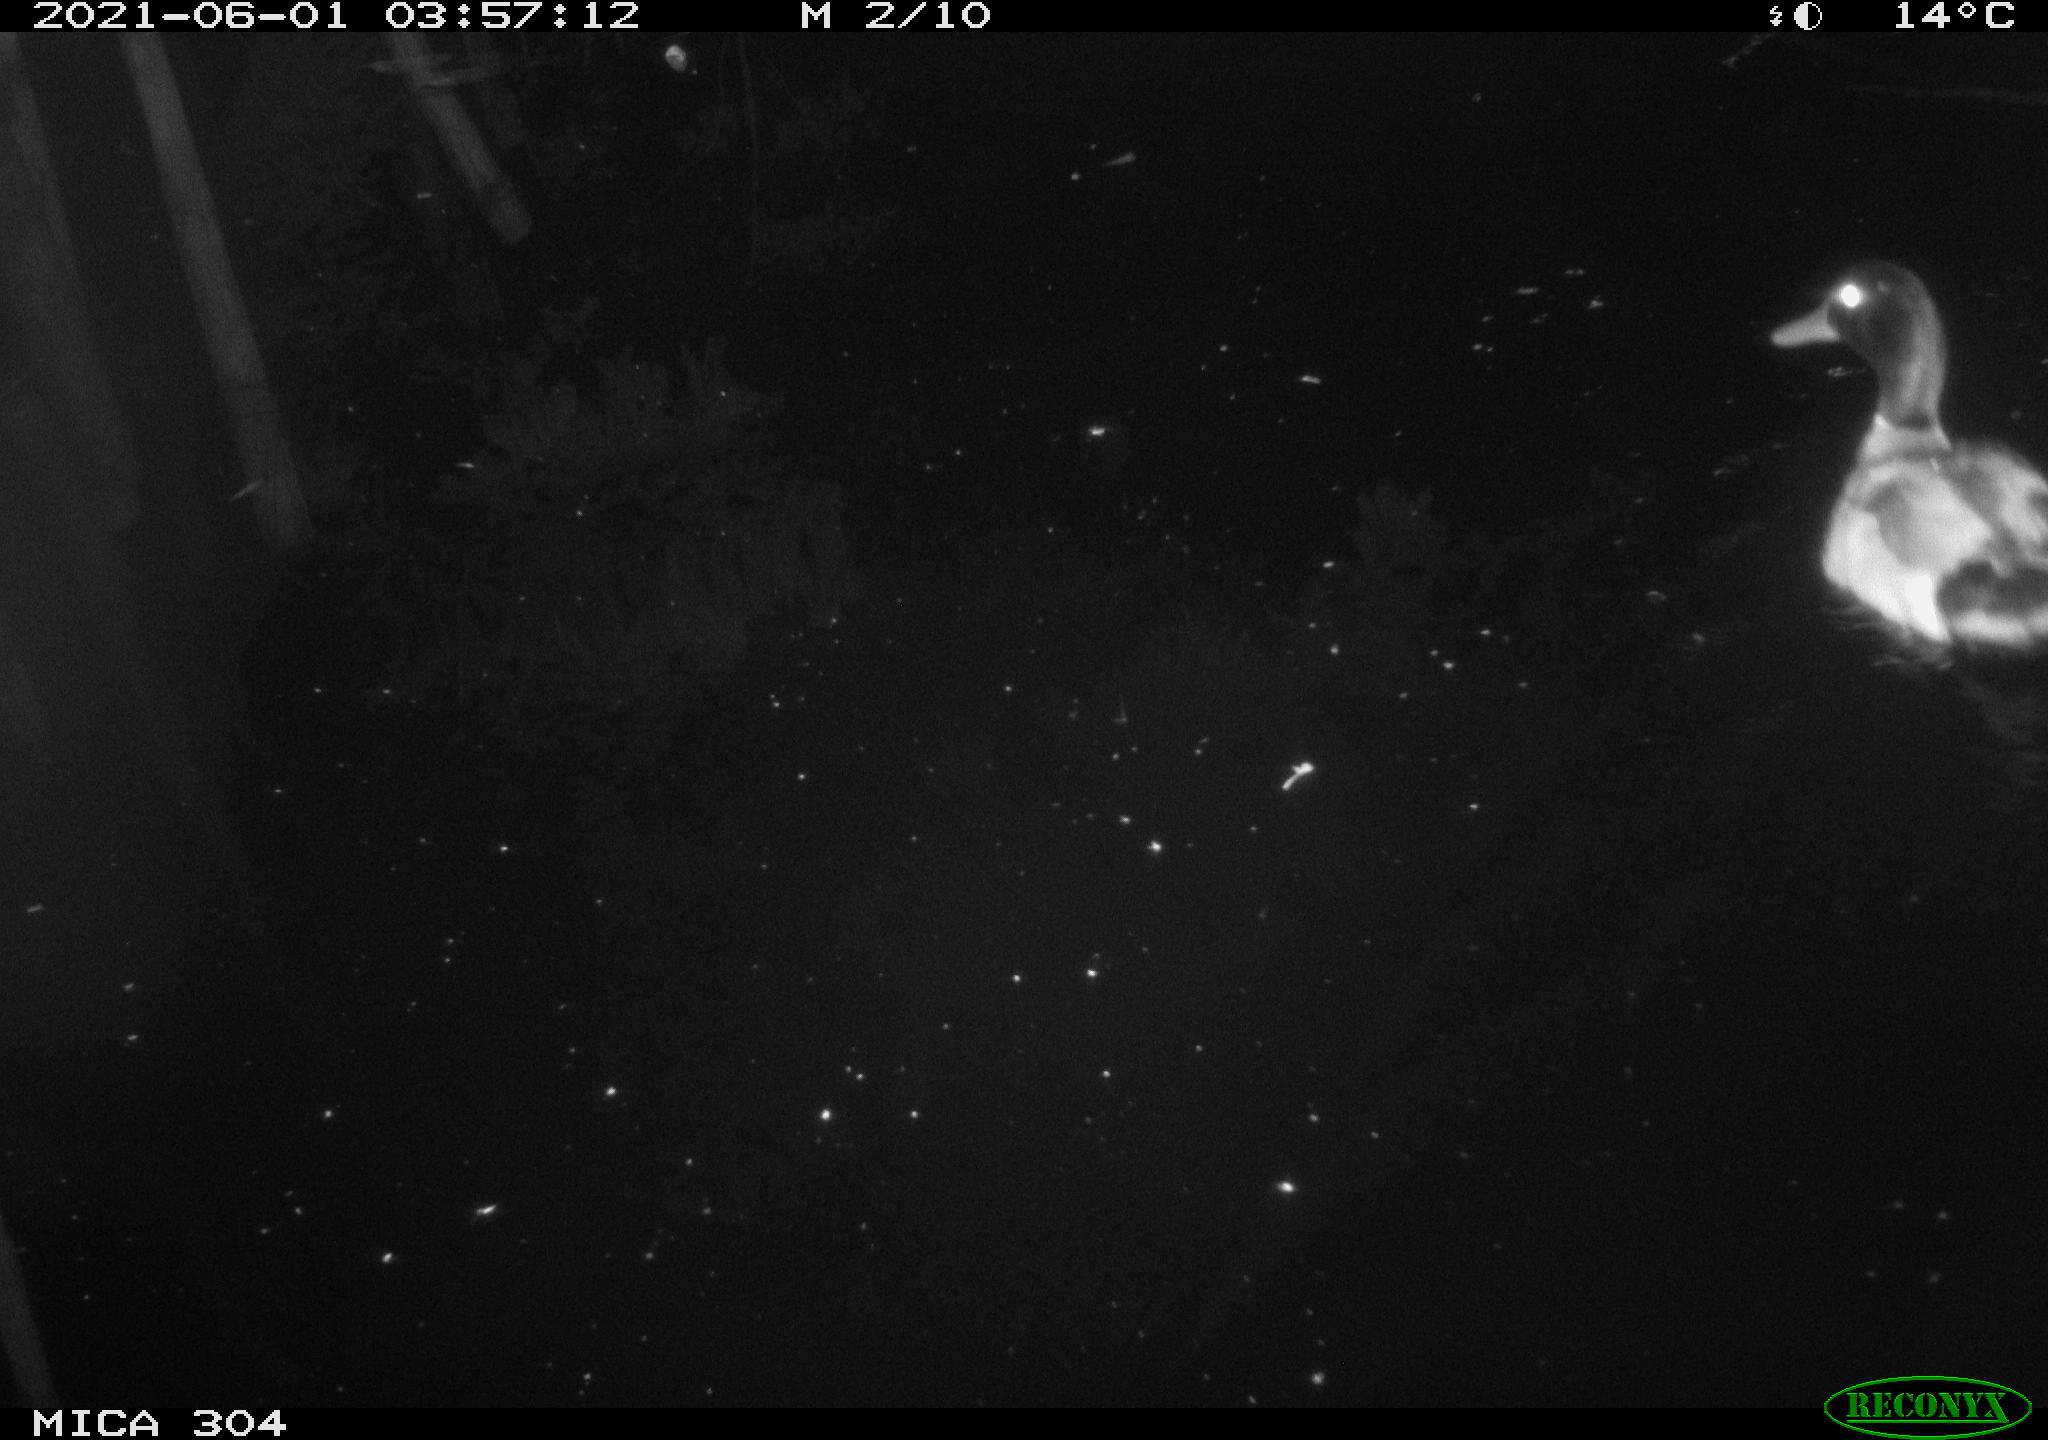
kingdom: Animalia
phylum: Chordata
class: Aves
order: Anseriformes
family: Anatidae
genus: Anas
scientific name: Anas platyrhynchos
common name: Mallard
